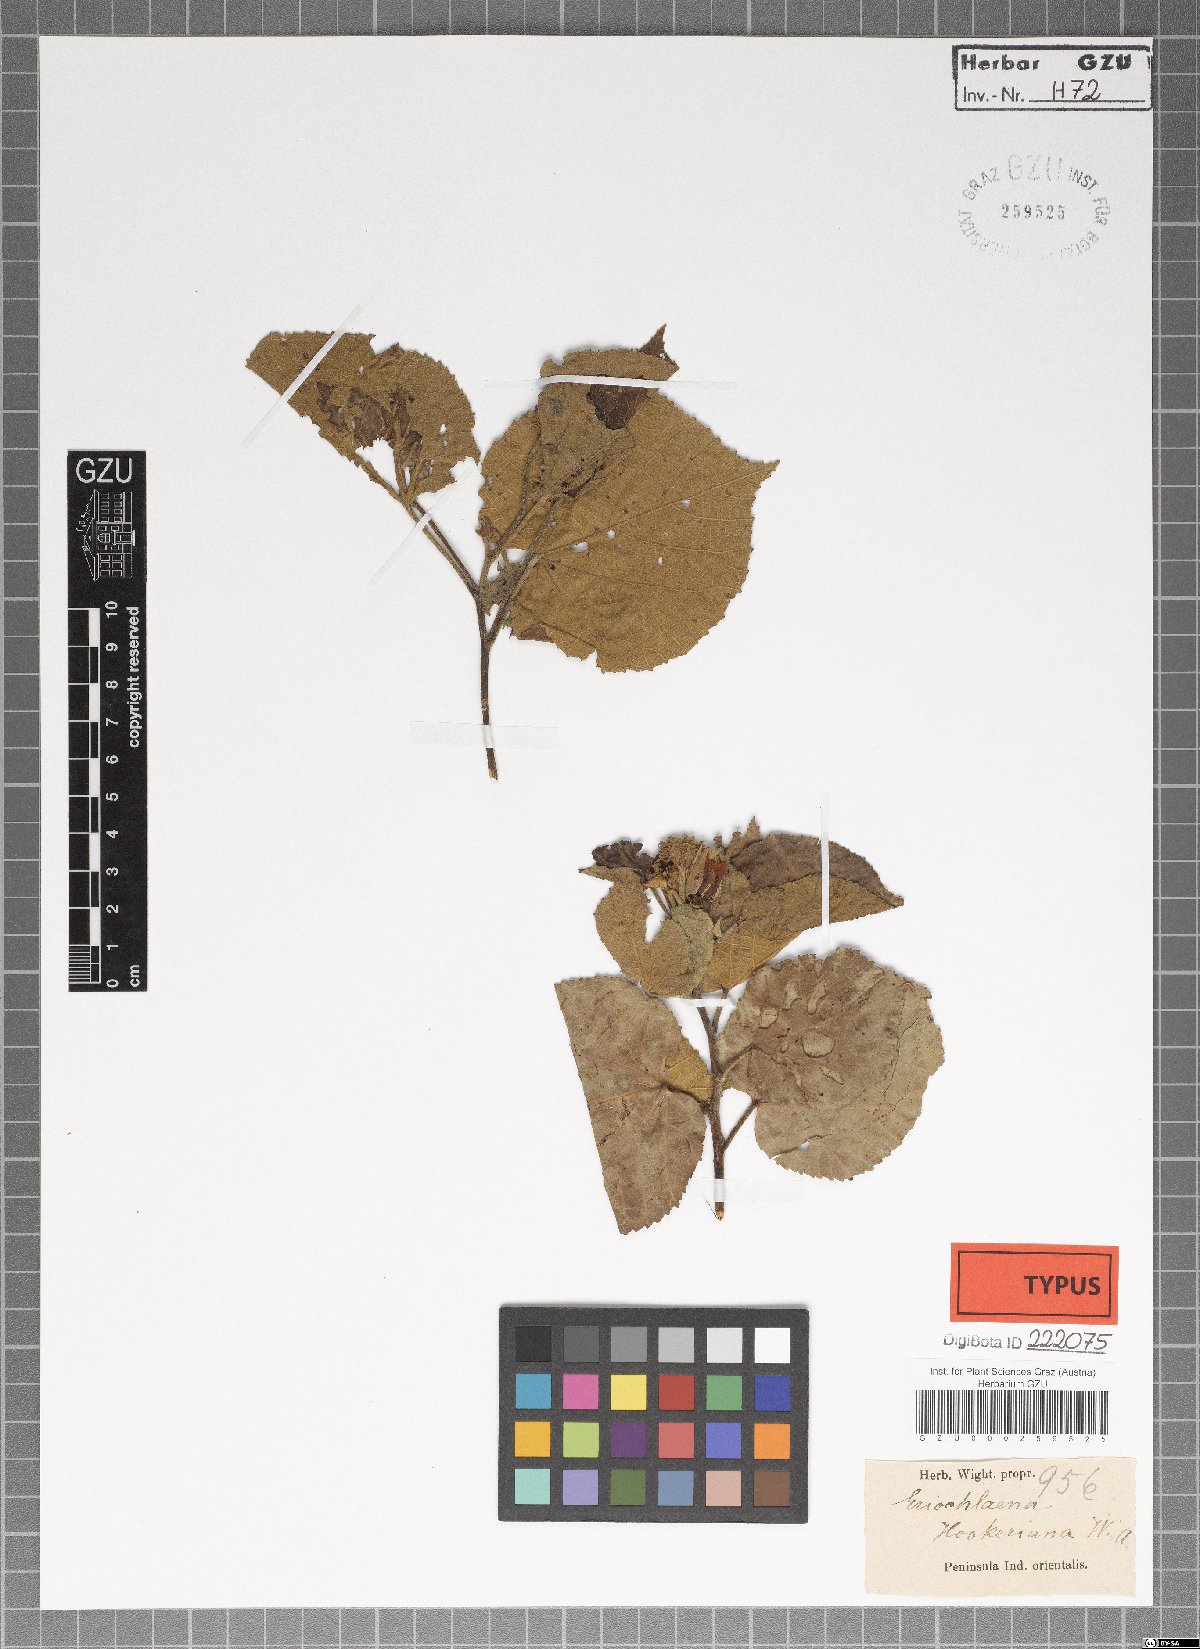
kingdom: Plantae
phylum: Tracheophyta
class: Magnoliopsida
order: Malvales
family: Malvaceae
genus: Eriolaena
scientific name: Eriolaena hookeriana
